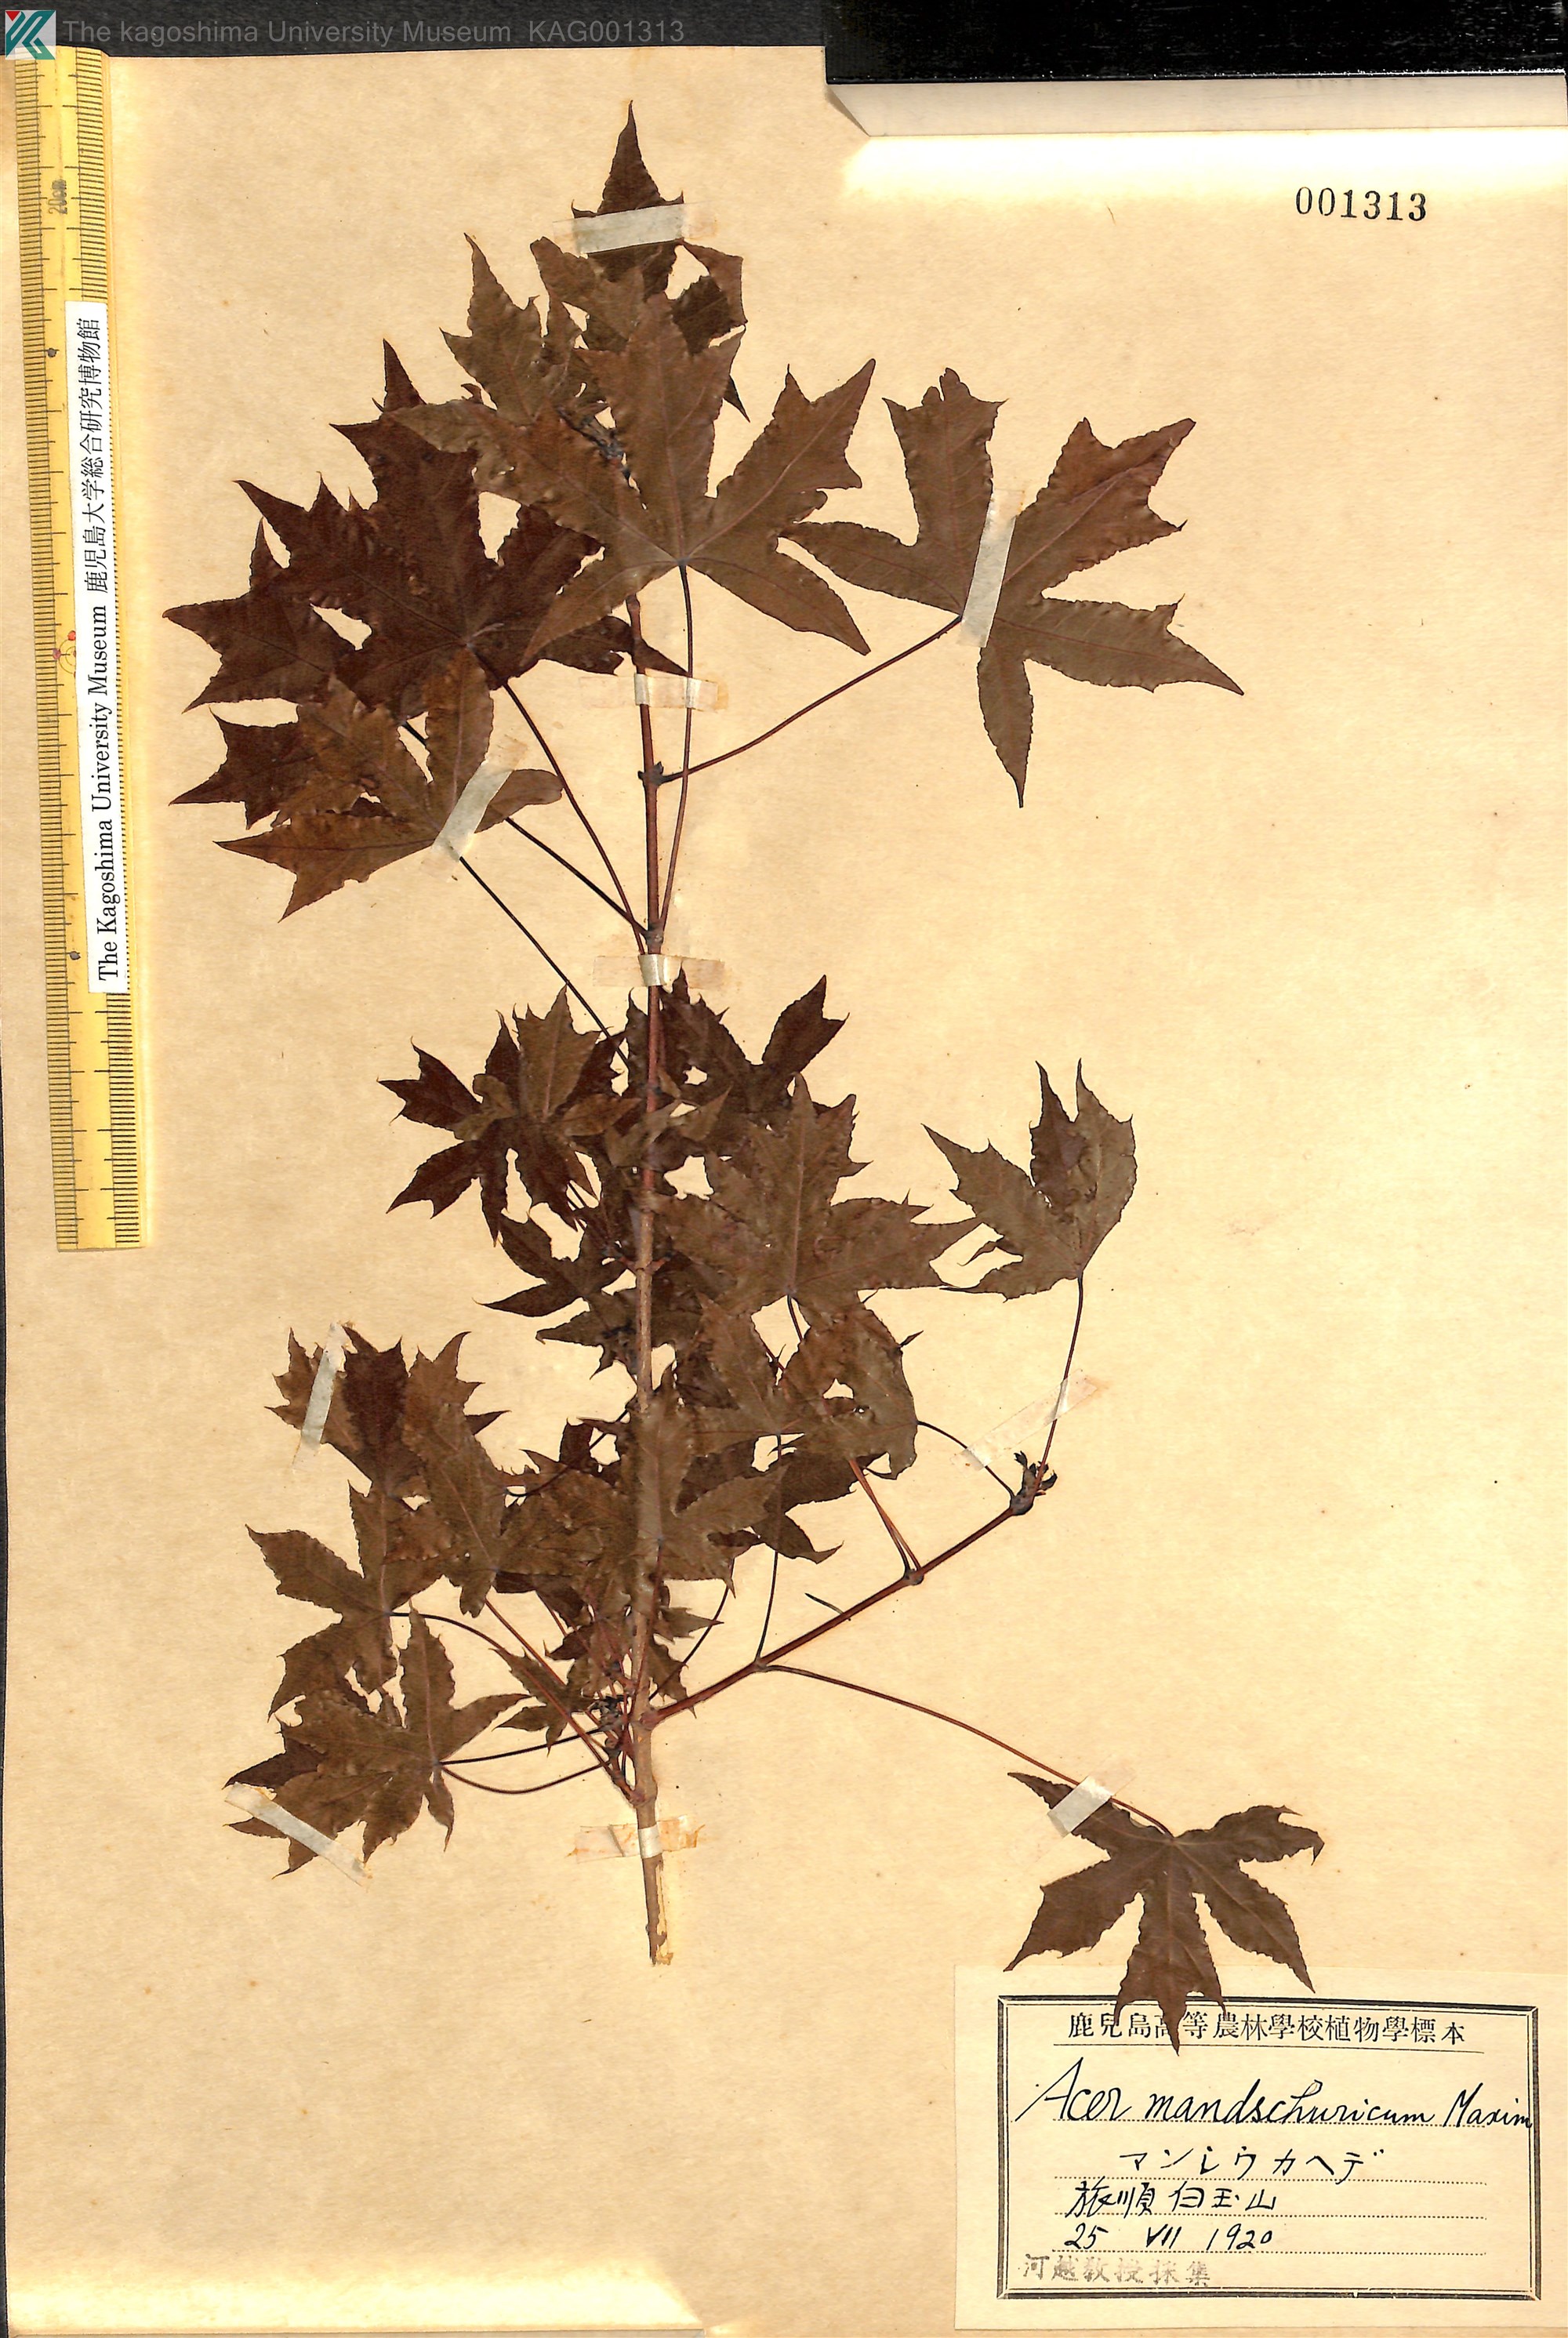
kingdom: Plantae
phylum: Tracheophyta
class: Magnoliopsida
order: Sapindales
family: Sapindaceae
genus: Acer
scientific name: Acer mandshuricum
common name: Manchurian maple
